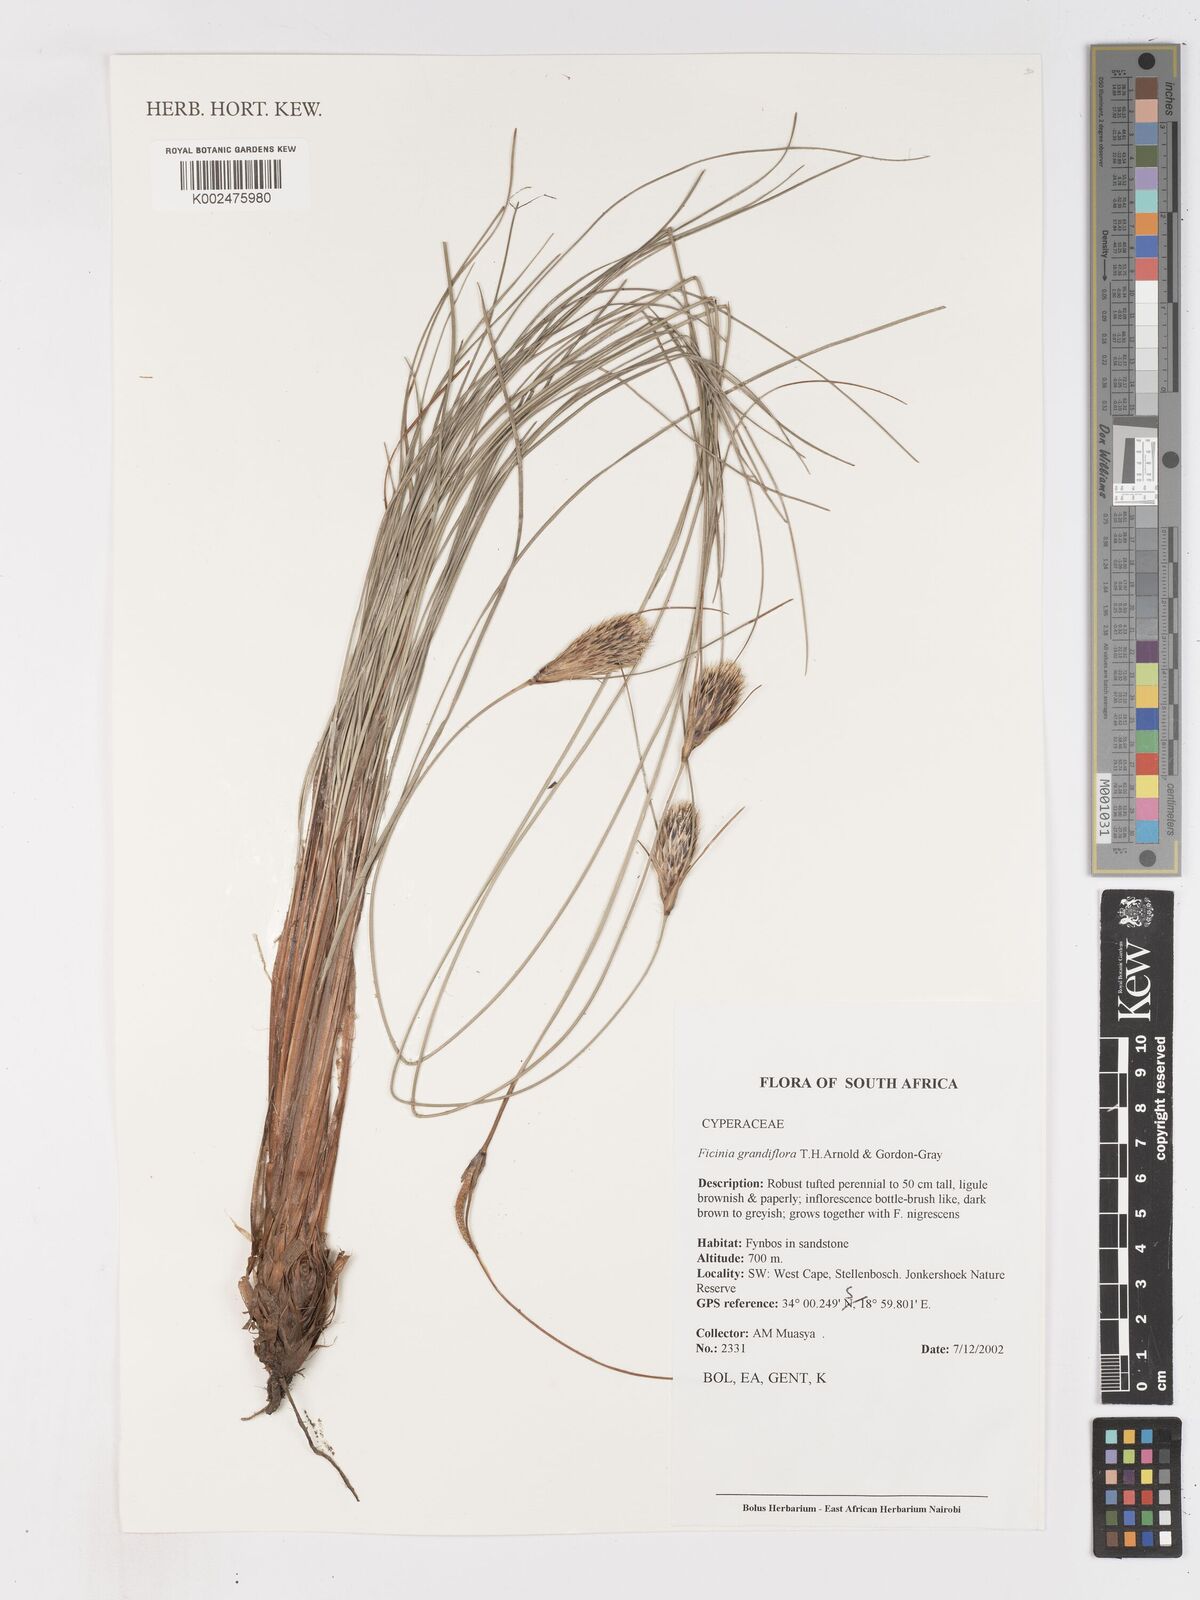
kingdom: Plantae
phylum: Tracheophyta
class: Liliopsida
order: Poales
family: Cyperaceae
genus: Ficinia
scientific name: Ficinia grandiflora
